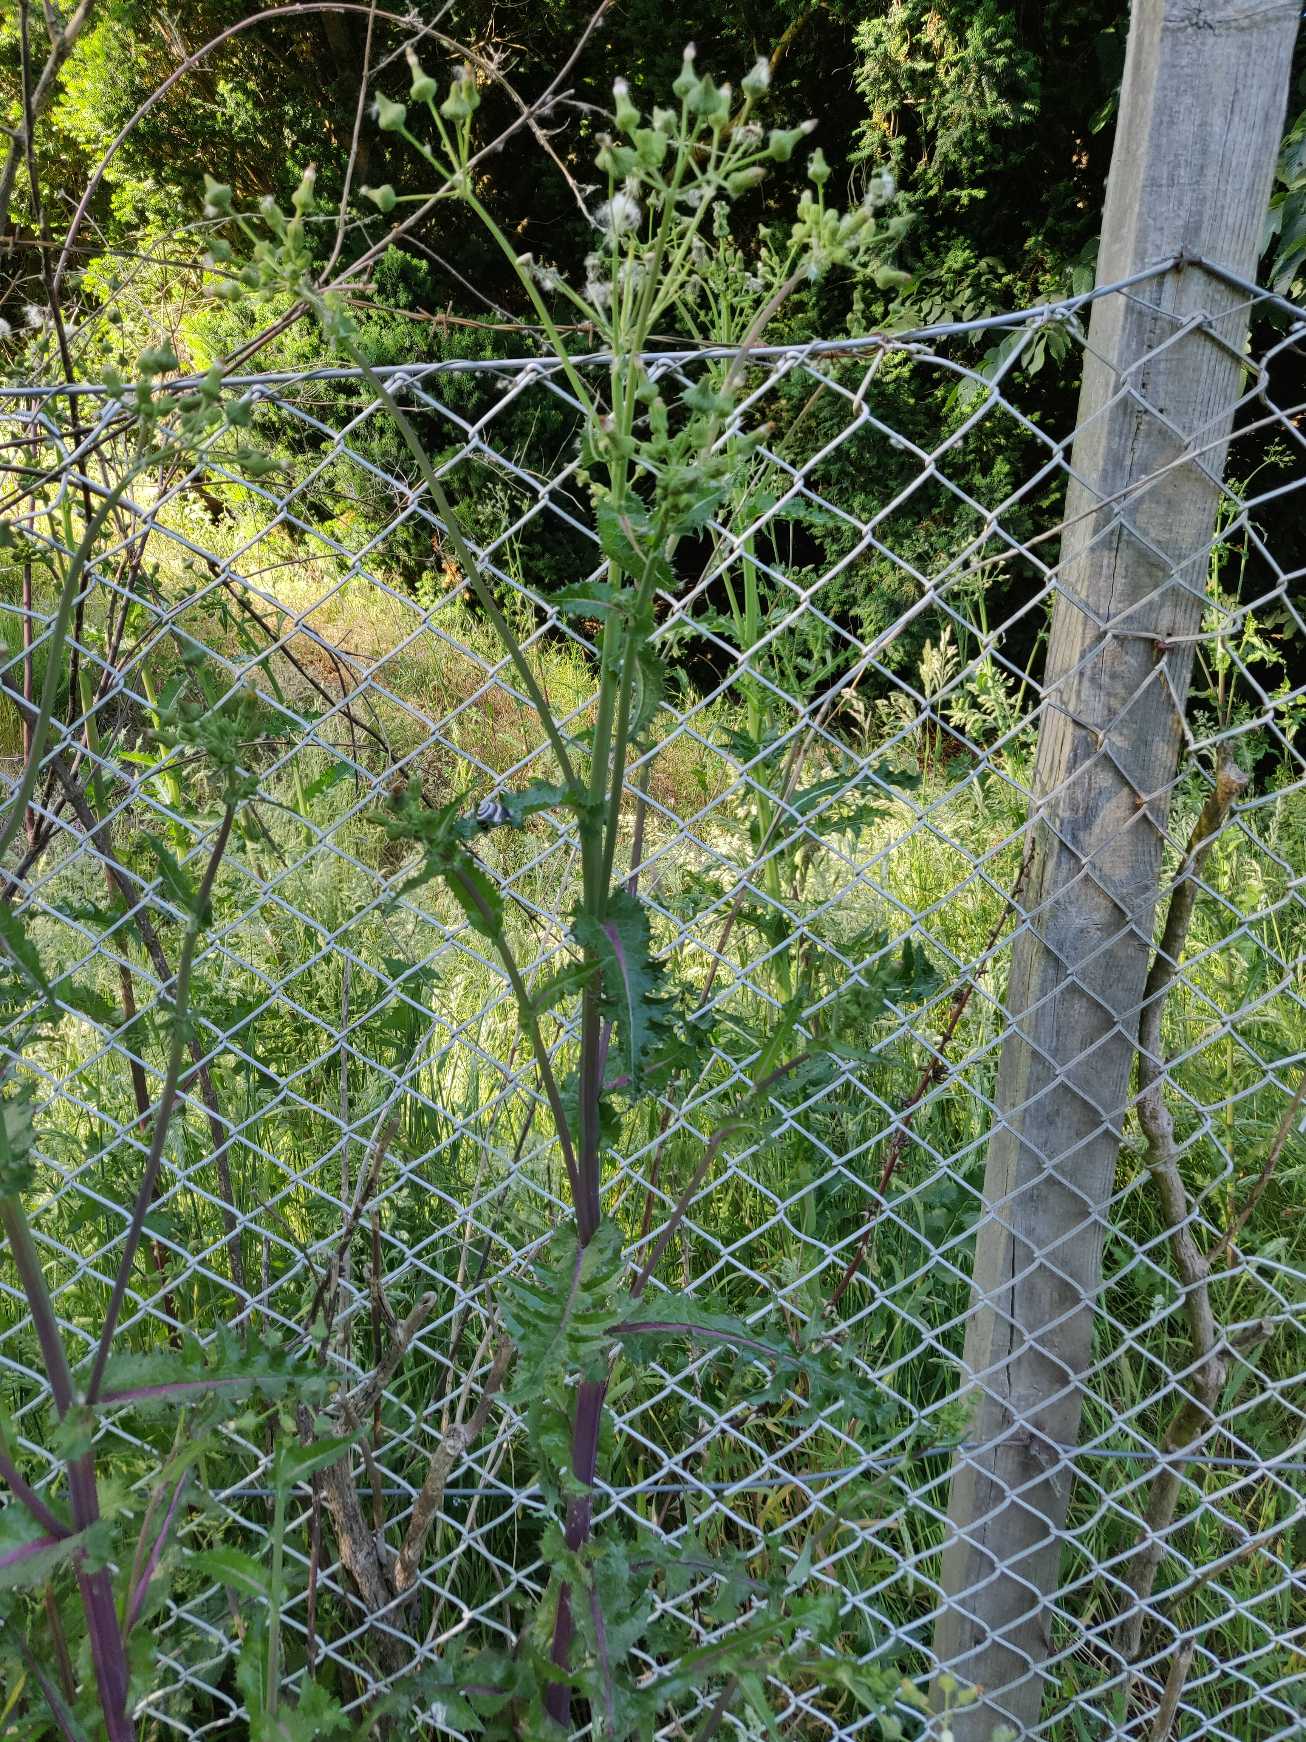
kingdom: Plantae
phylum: Tracheophyta
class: Magnoliopsida
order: Asterales
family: Asteraceae
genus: Sonchus
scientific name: Sonchus asper
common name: Ru svinemælk
